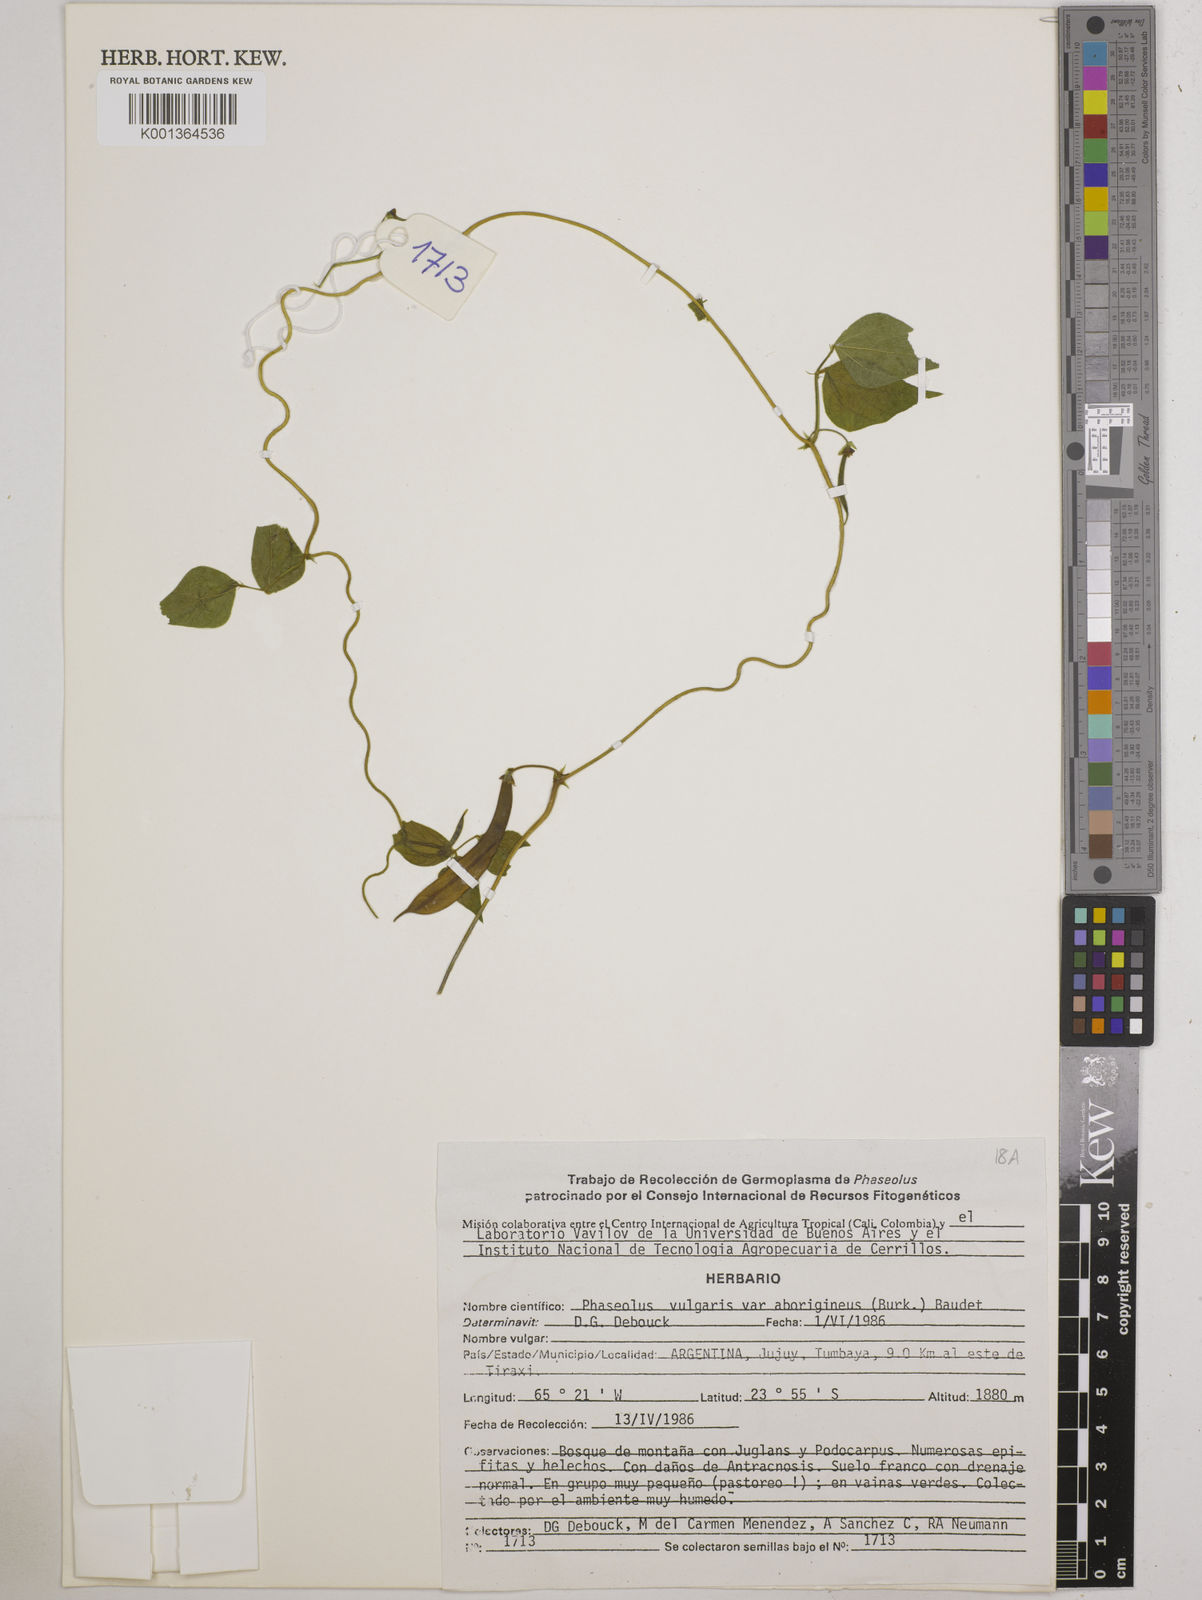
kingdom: Plantae
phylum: Tracheophyta
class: Magnoliopsida
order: Fabales
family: Fabaceae
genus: Phaseolus
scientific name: Phaseolus vulgaris
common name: Bean
